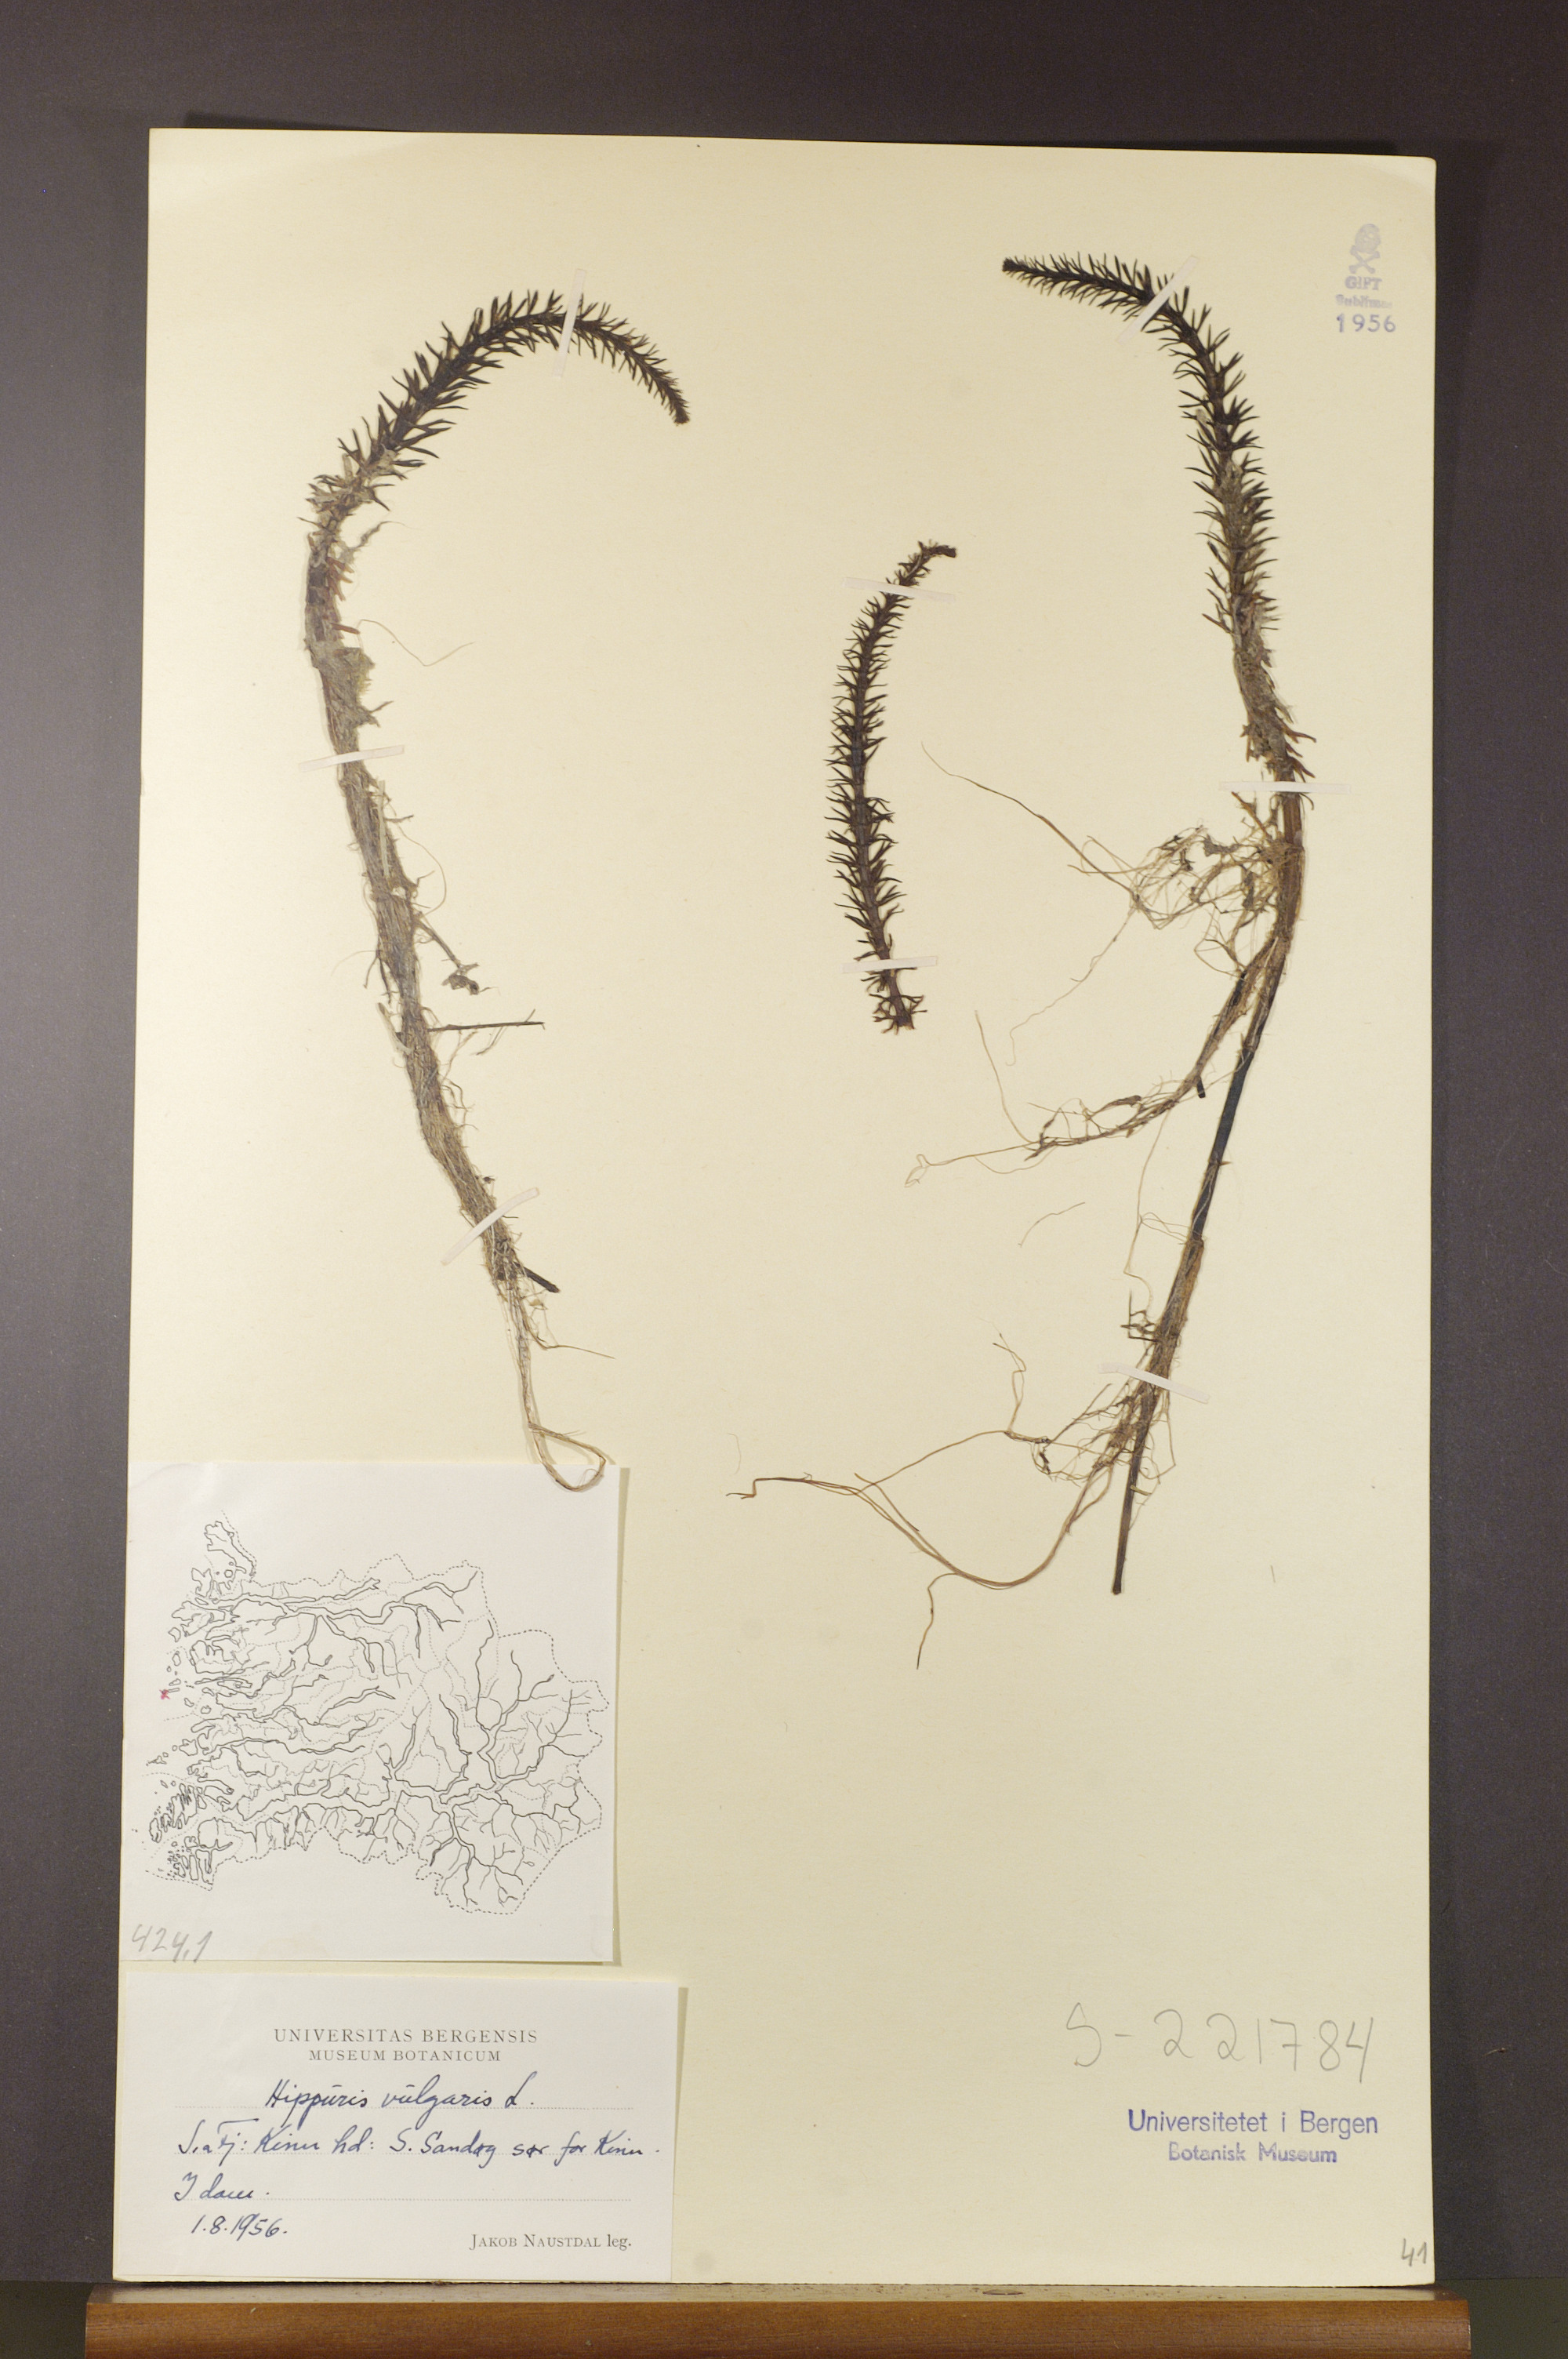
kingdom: Plantae
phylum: Tracheophyta
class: Magnoliopsida
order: Lamiales
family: Plantaginaceae
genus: Hippuris
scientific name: Hippuris vulgaris
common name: Mare's-tail
